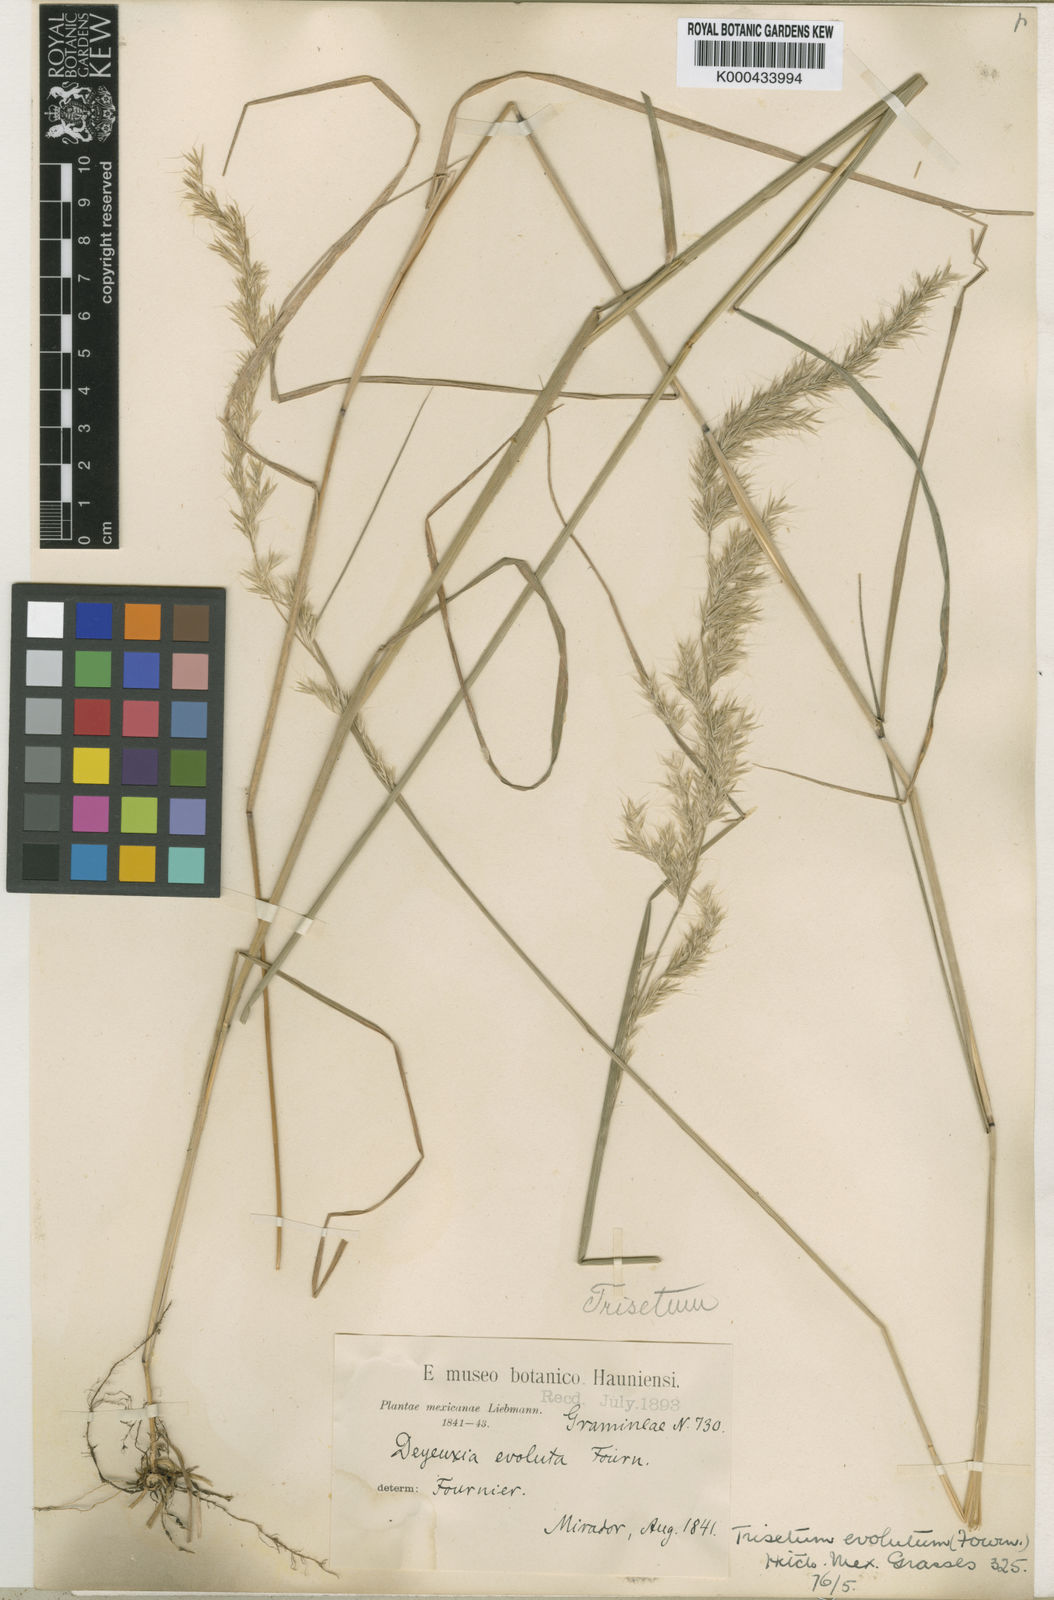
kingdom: Plantae
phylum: Tracheophyta
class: Liliopsida
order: Poales
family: Poaceae
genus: Peyritschia
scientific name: Peyritschia deyeuxioides
